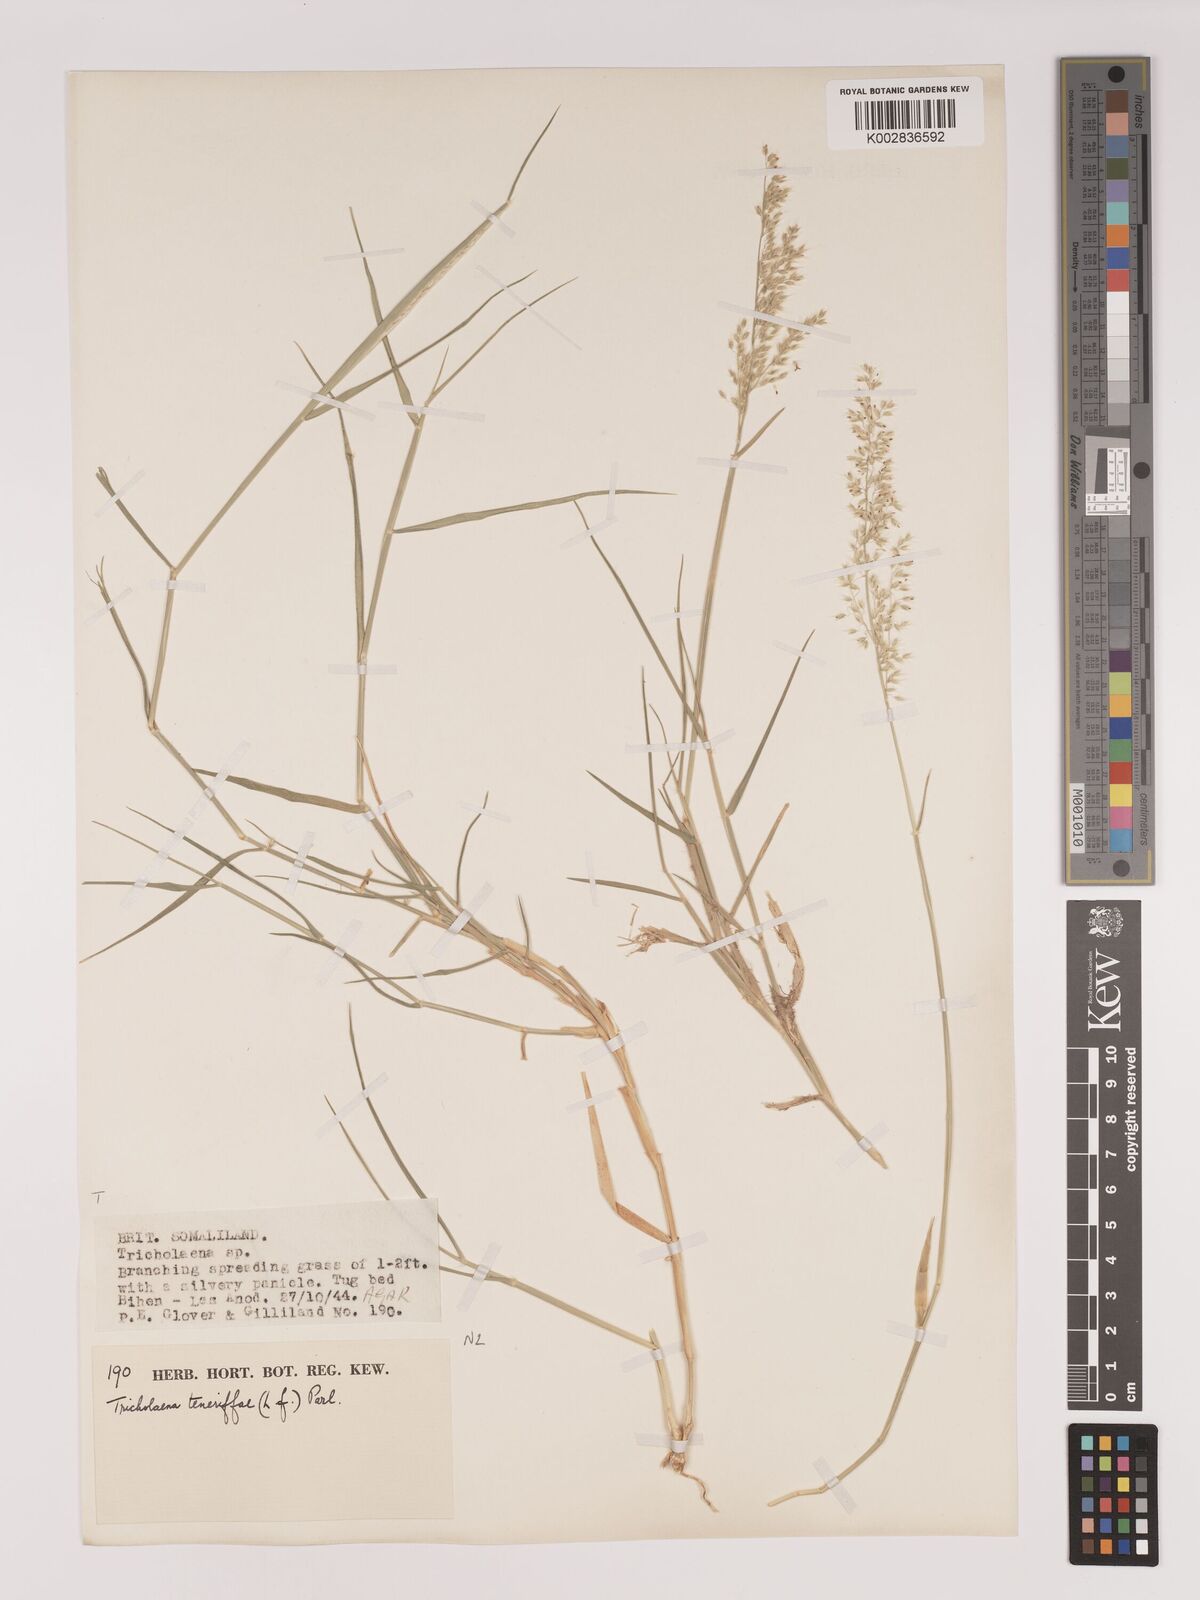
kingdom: Plantae
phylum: Tracheophyta
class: Liliopsida
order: Poales
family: Poaceae
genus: Tricholaena
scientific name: Tricholaena teneriffae
